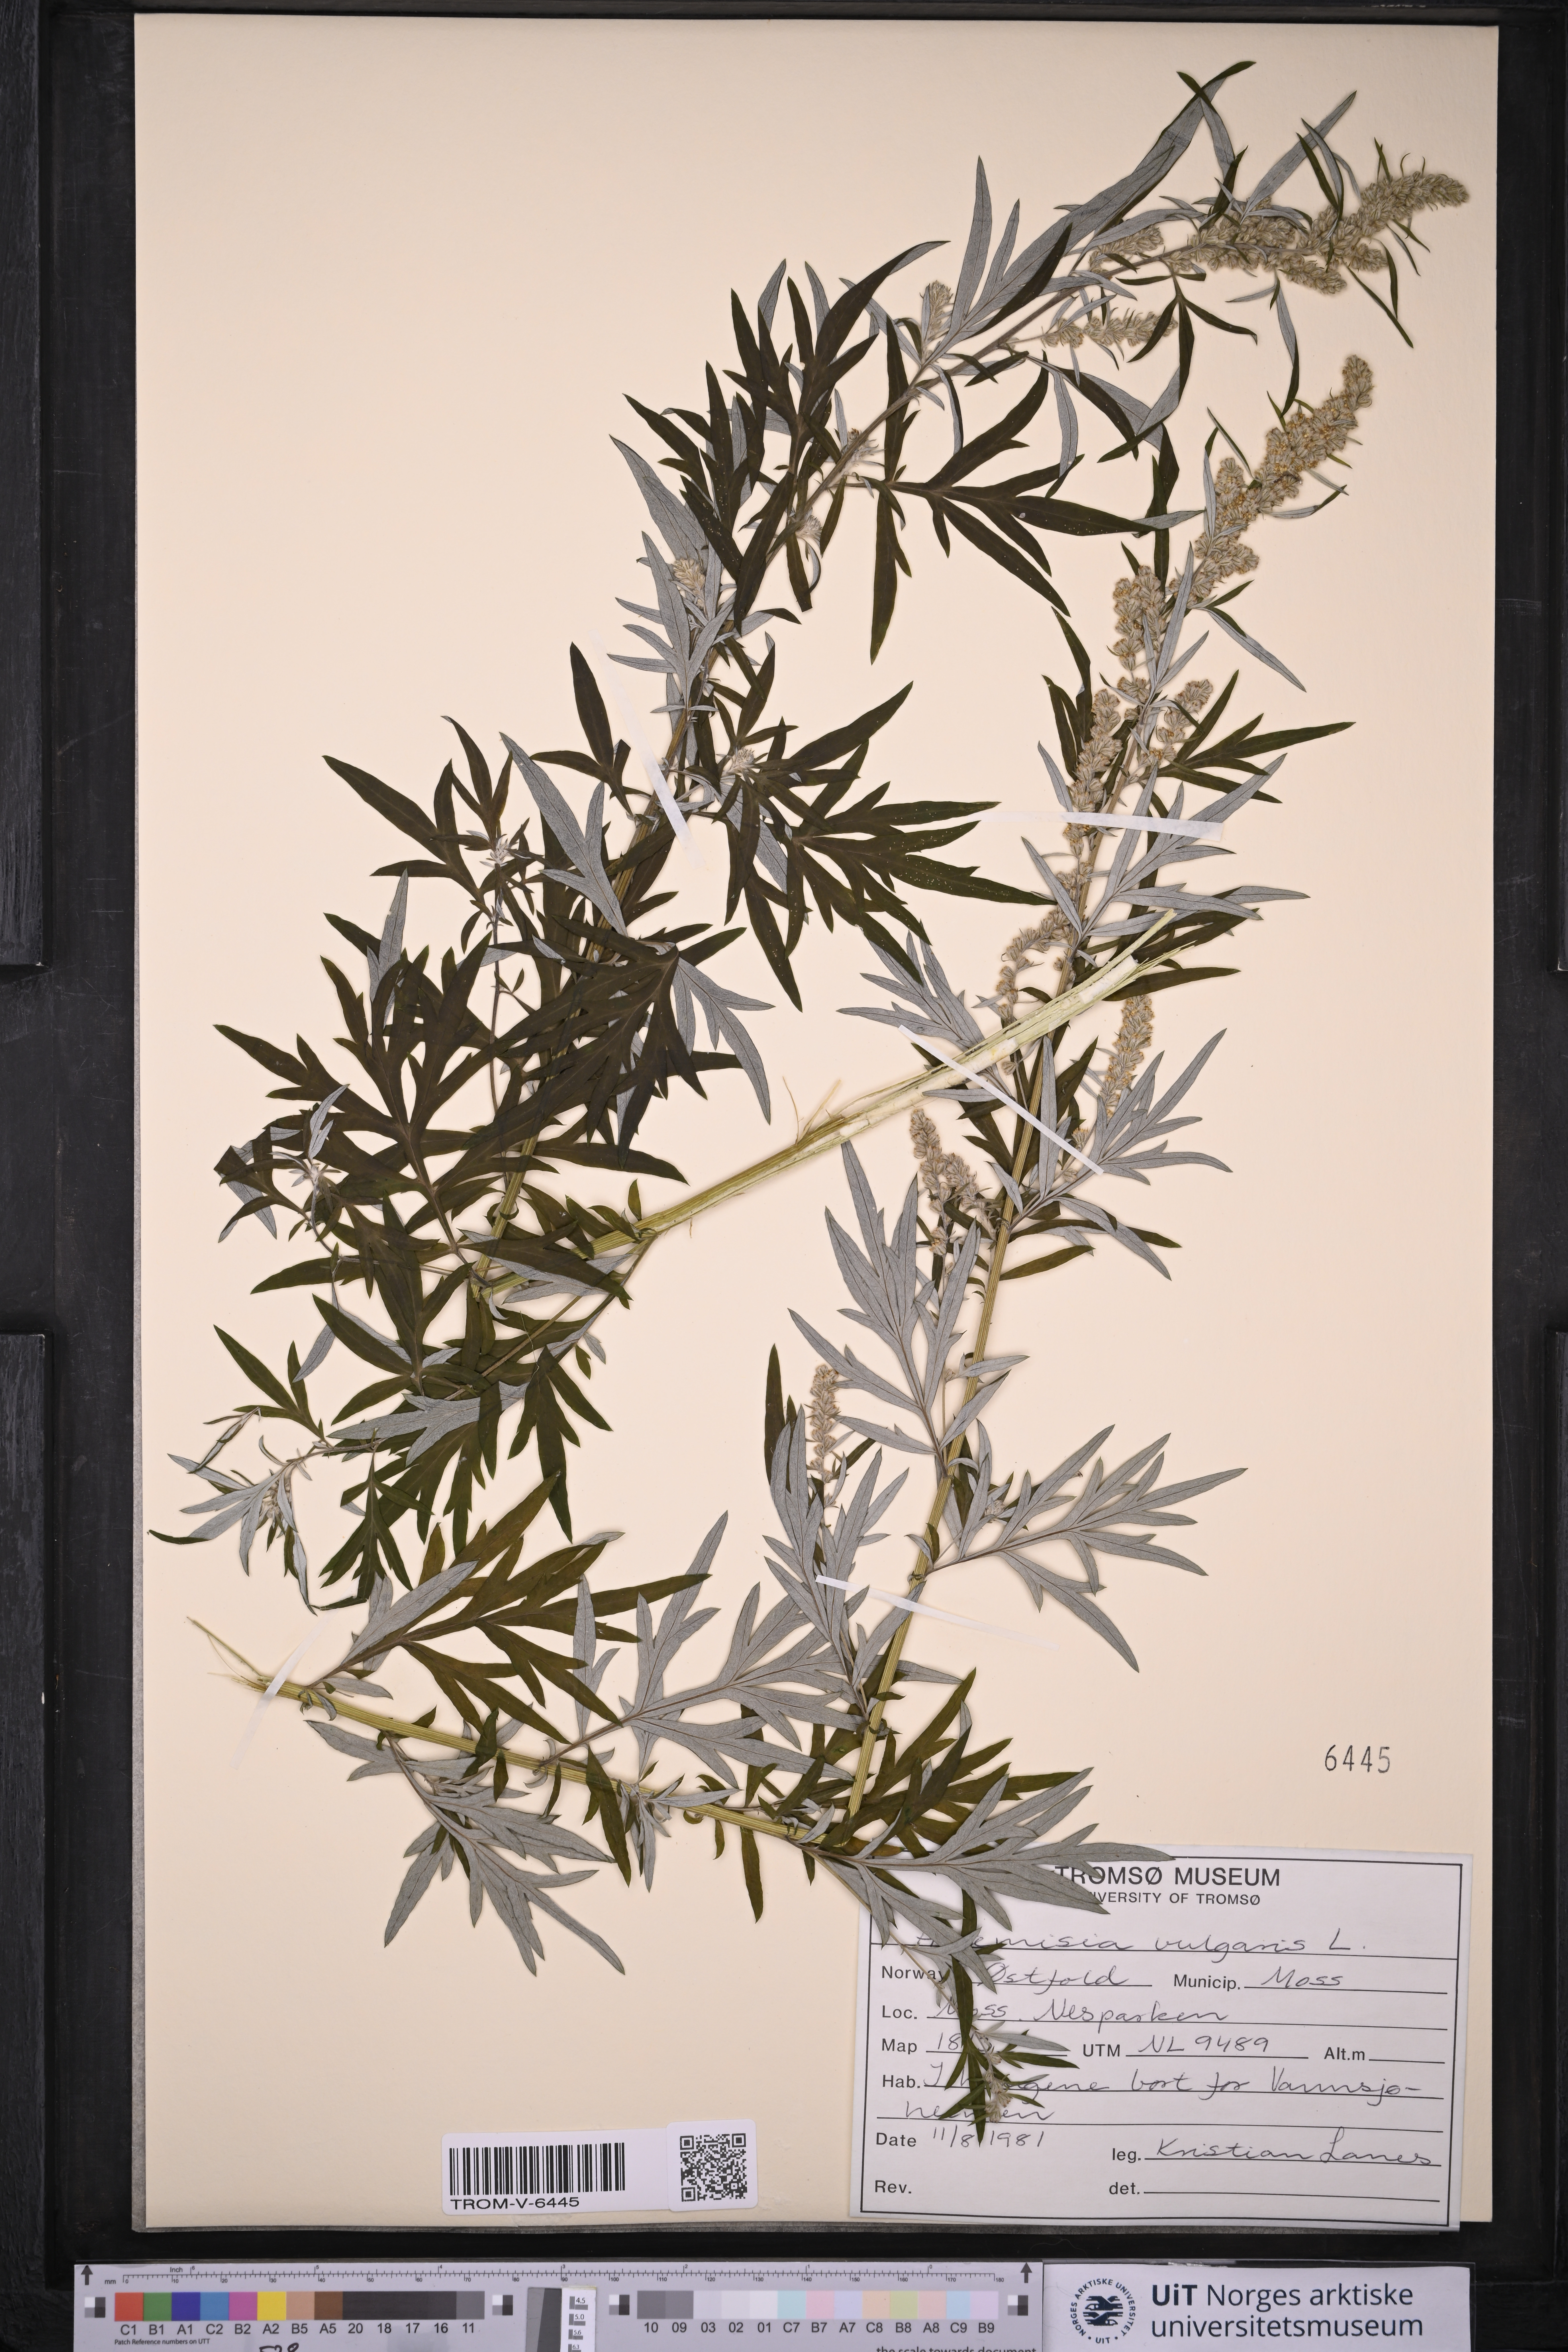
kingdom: Plantae
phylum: Tracheophyta
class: Magnoliopsida
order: Asterales
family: Asteraceae
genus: Artemisia
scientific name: Artemisia vulgaris
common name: Mugwort
